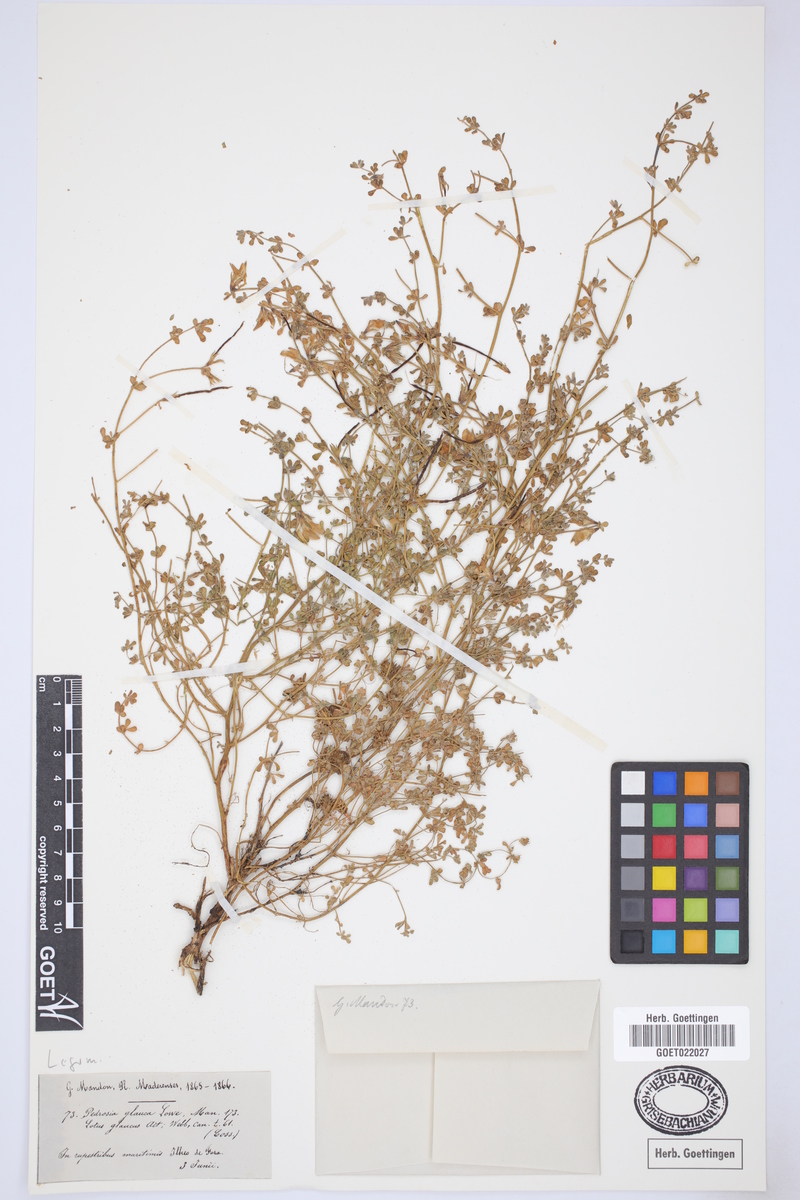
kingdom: Plantae
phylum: Tracheophyta
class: Magnoliopsida
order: Fabales
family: Fabaceae
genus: Lotus
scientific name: Lotus glaucus
